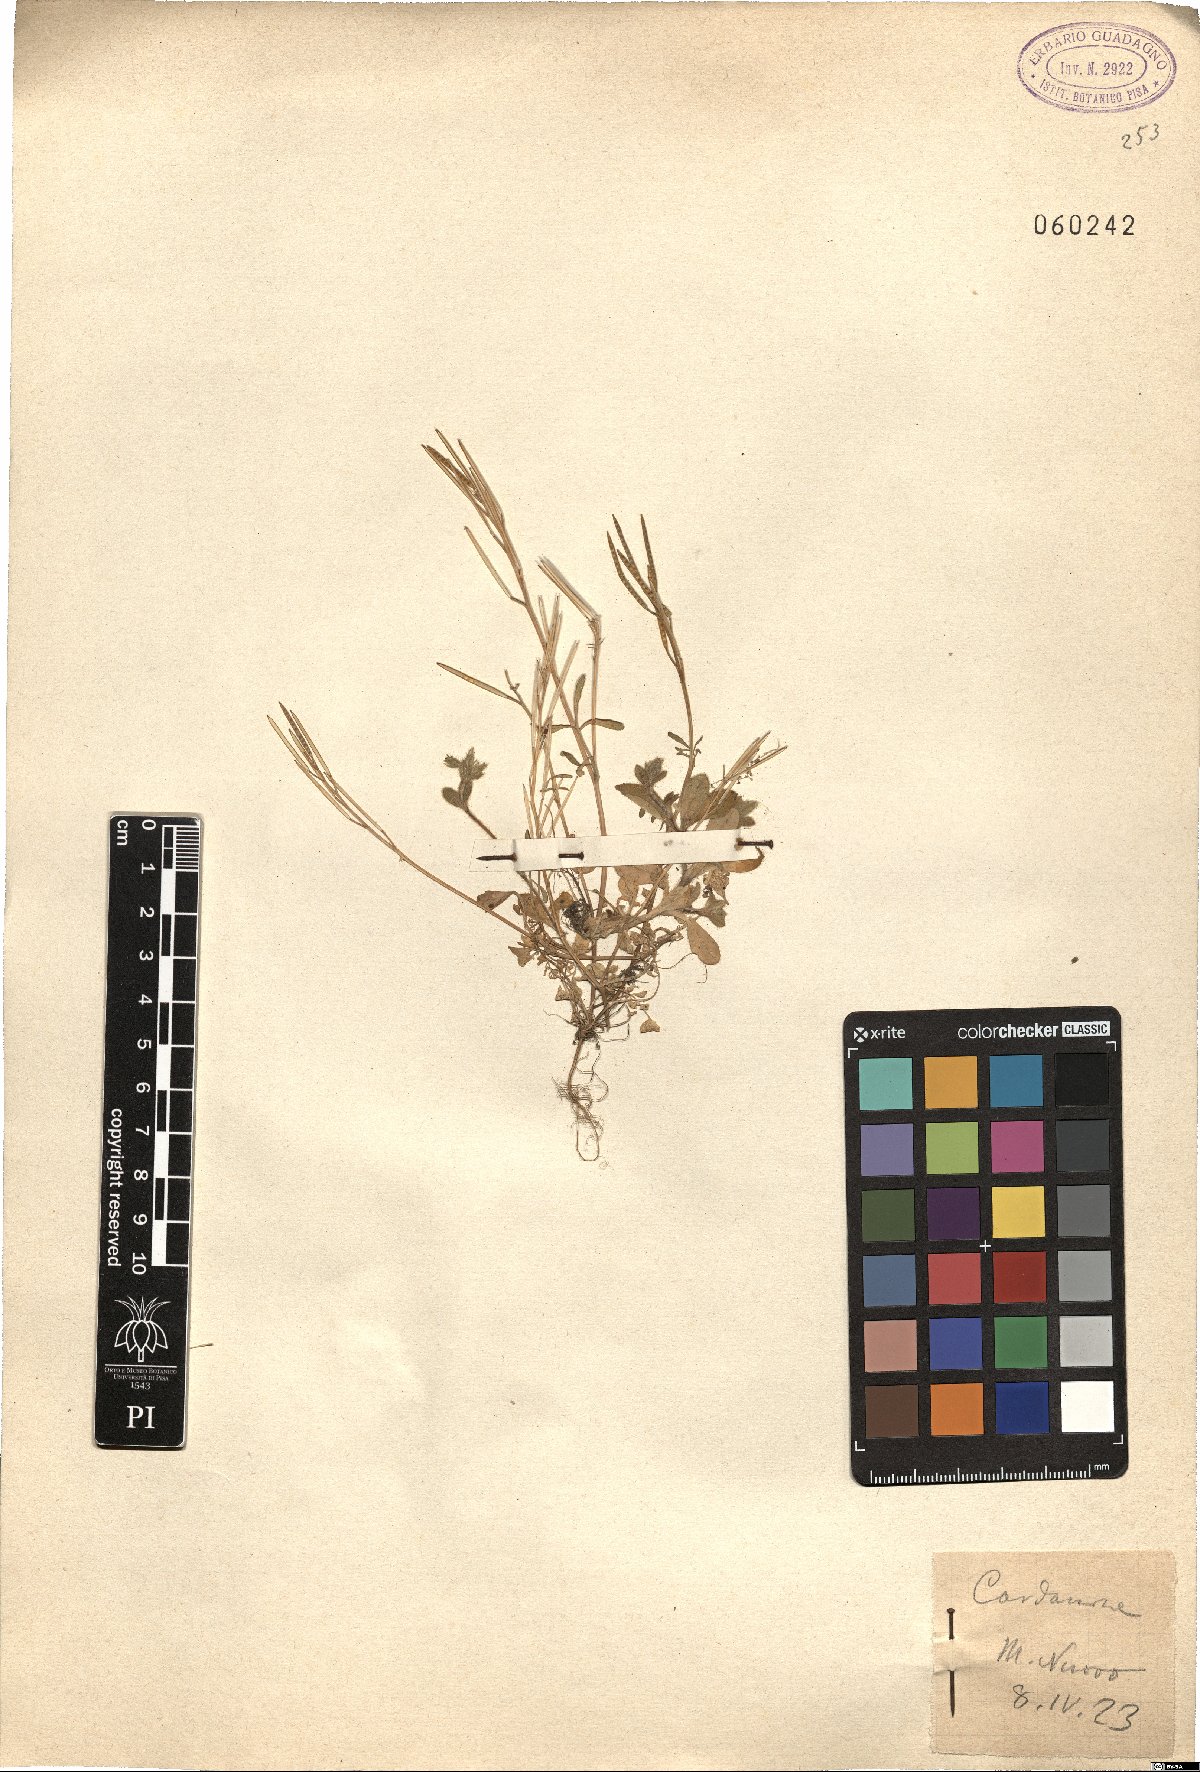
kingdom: Plantae
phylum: Tracheophyta
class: Magnoliopsida
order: Brassicales
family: Brassicaceae
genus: Cardamine
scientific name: Cardamine
